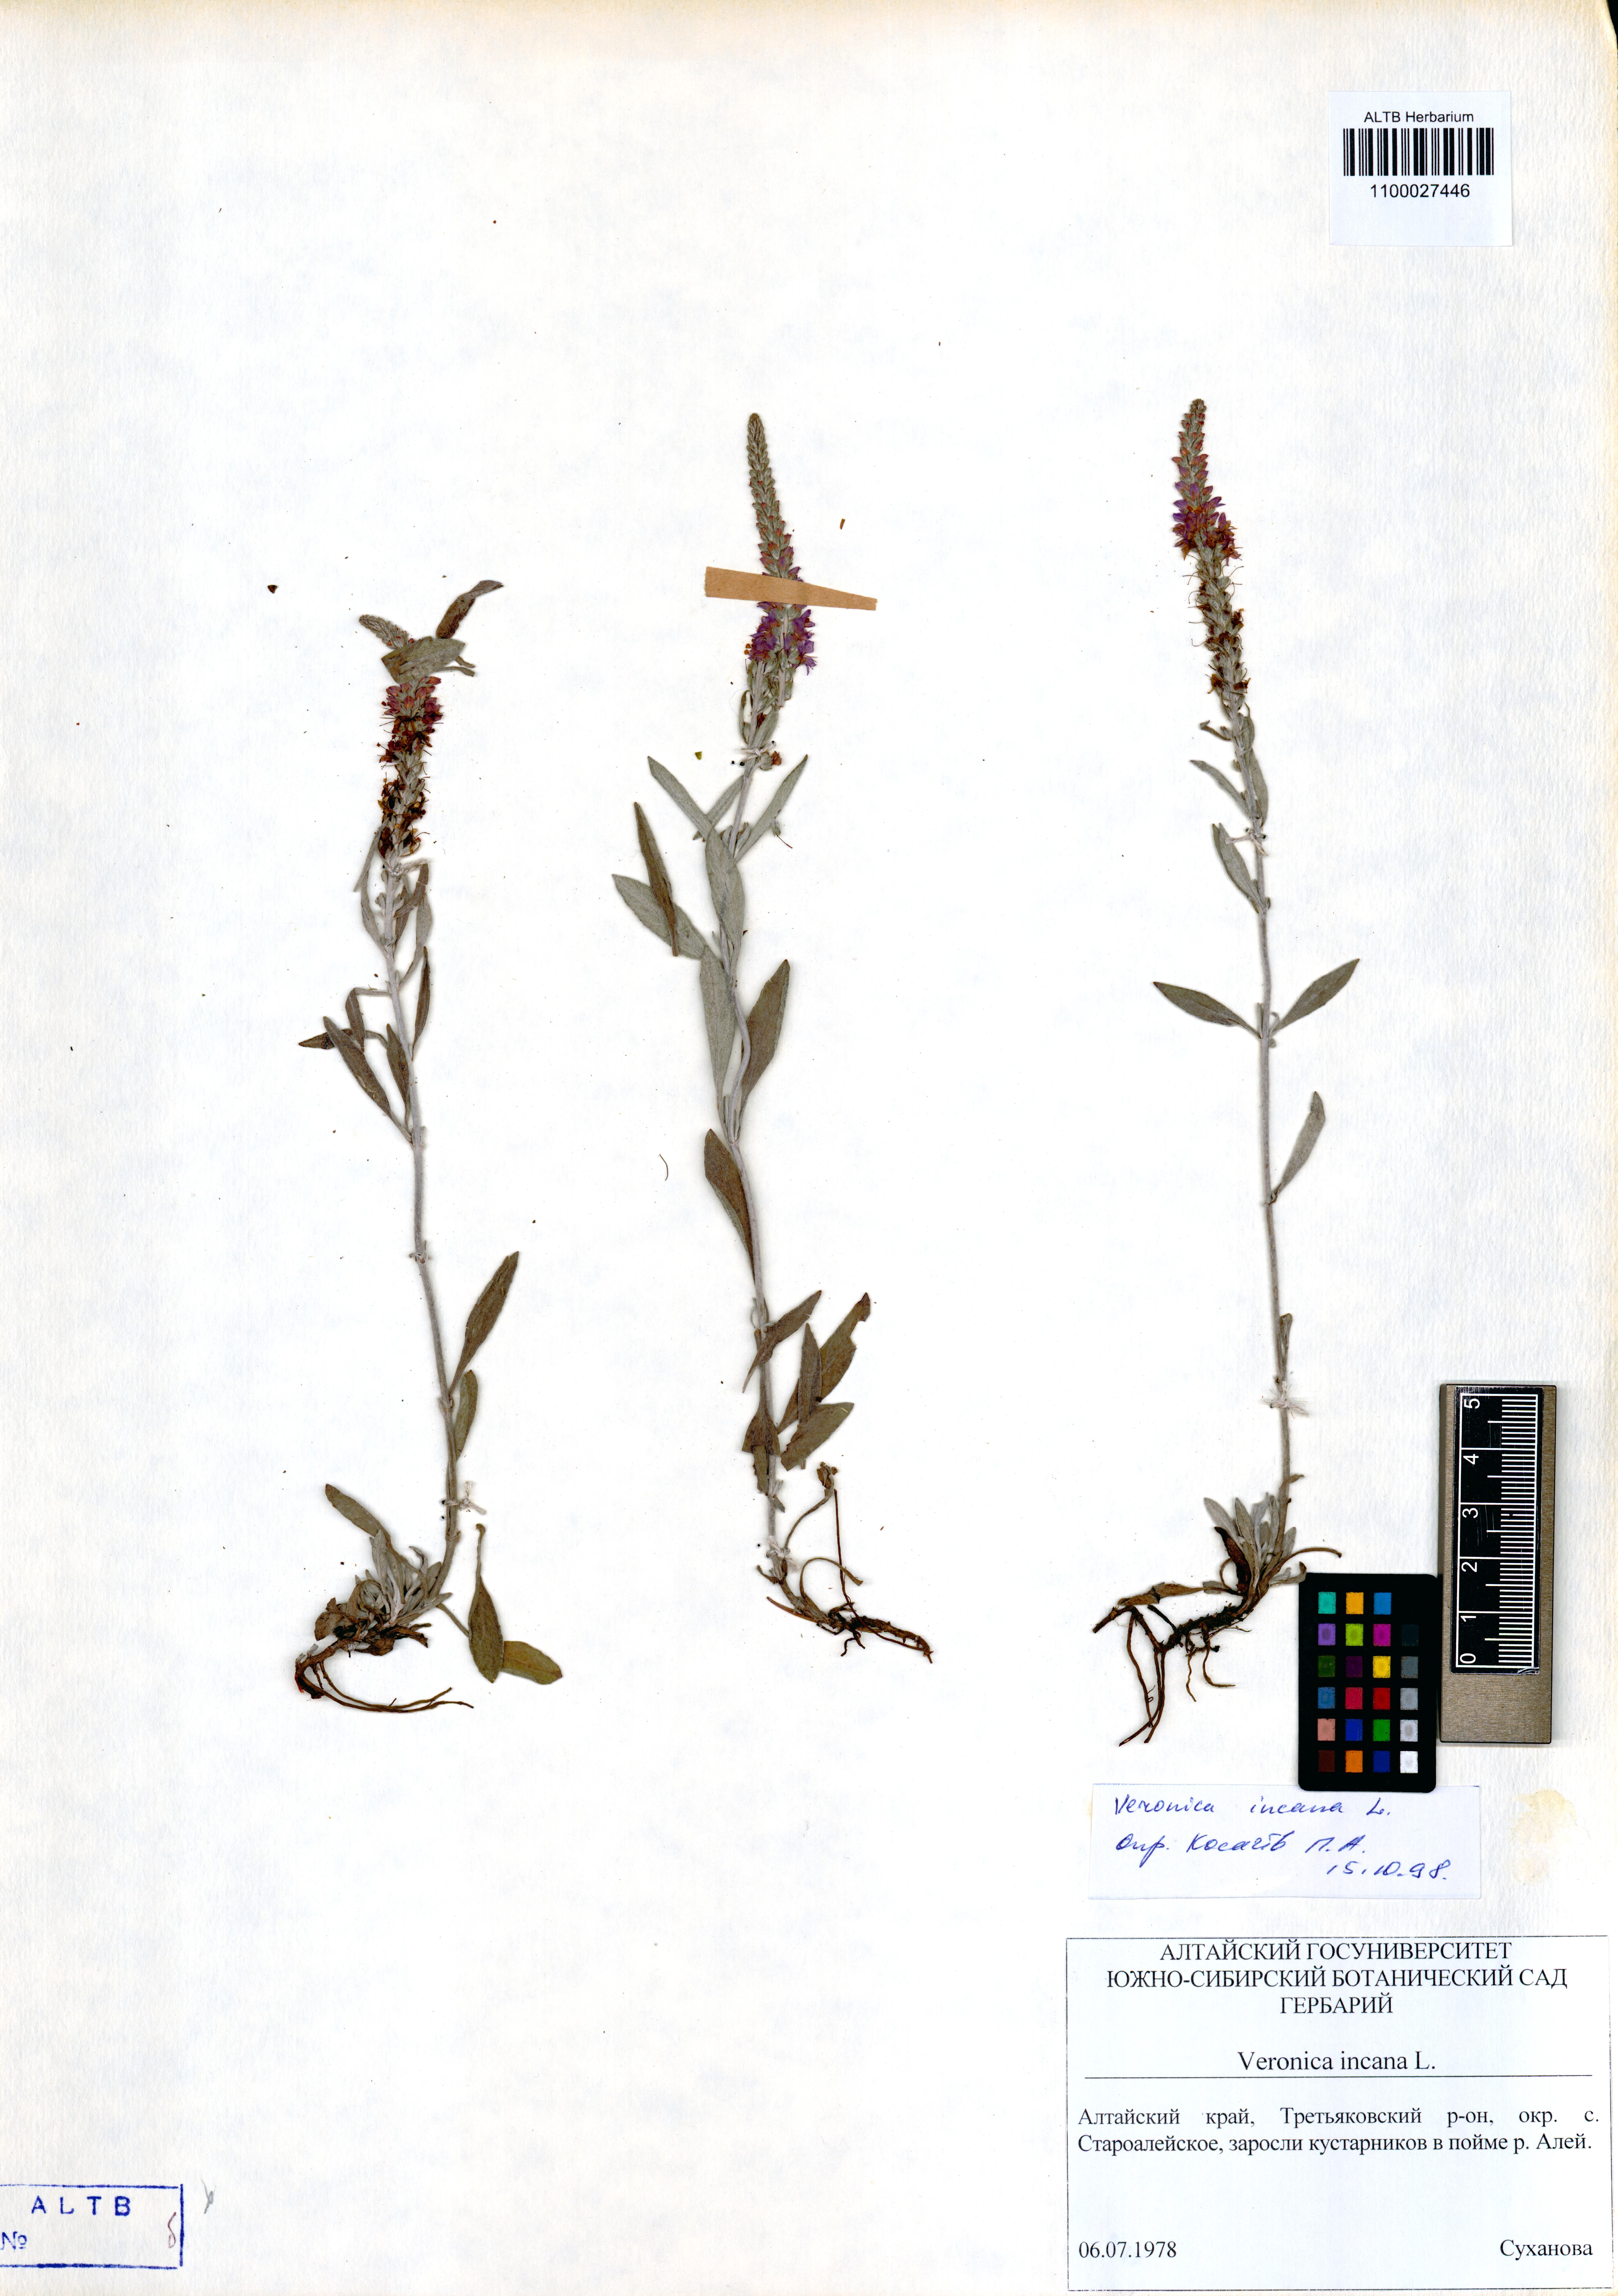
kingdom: Plantae
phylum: Tracheophyta
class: Magnoliopsida
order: Lamiales
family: Plantaginaceae
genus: Veronica
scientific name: Veronica incana
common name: Silver speedwell
